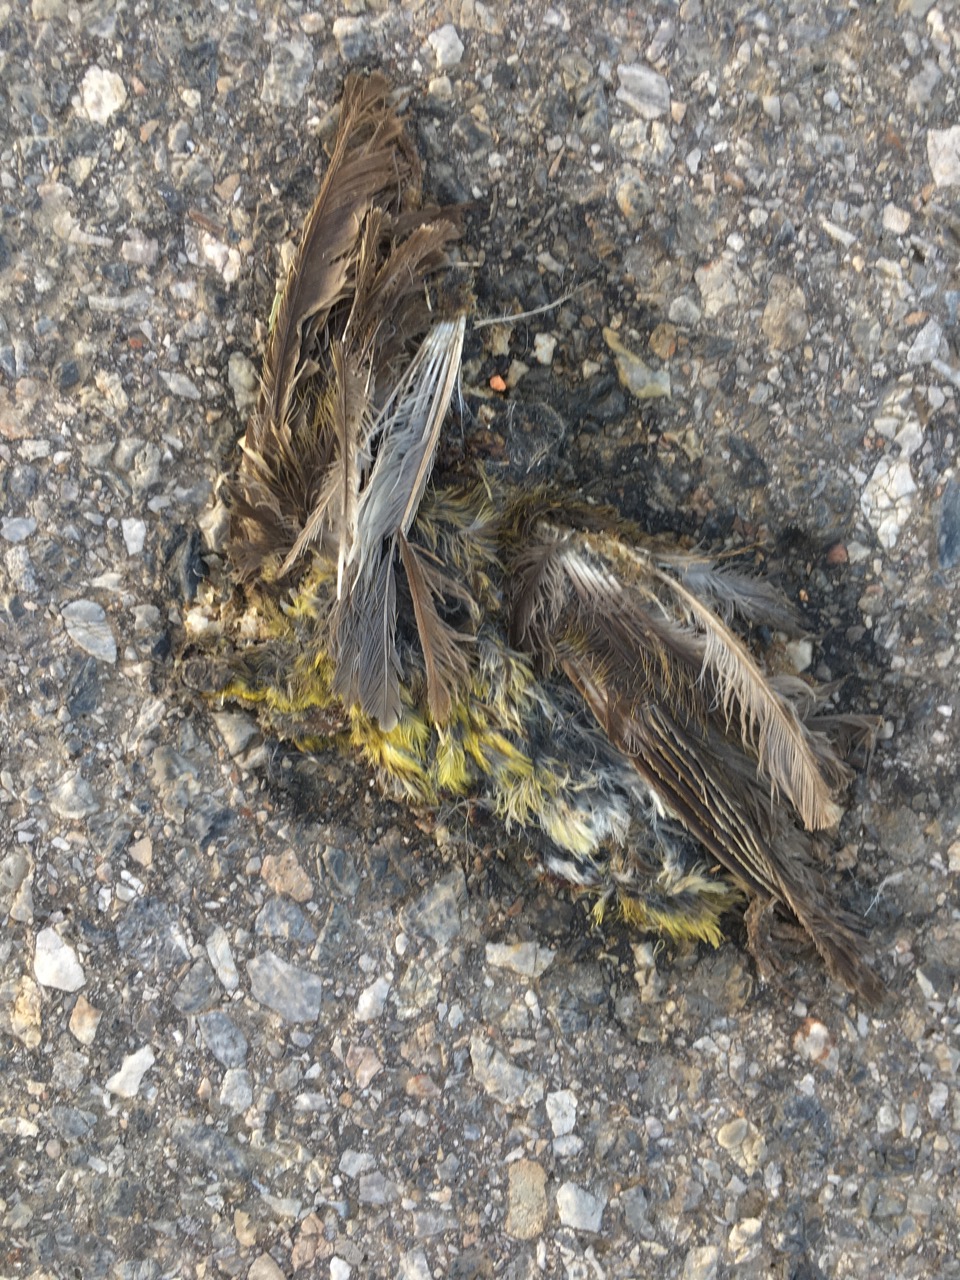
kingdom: Plantae
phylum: Tracheophyta
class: Liliopsida
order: Poales
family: Poaceae
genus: Chloris
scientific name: Chloris chloris
